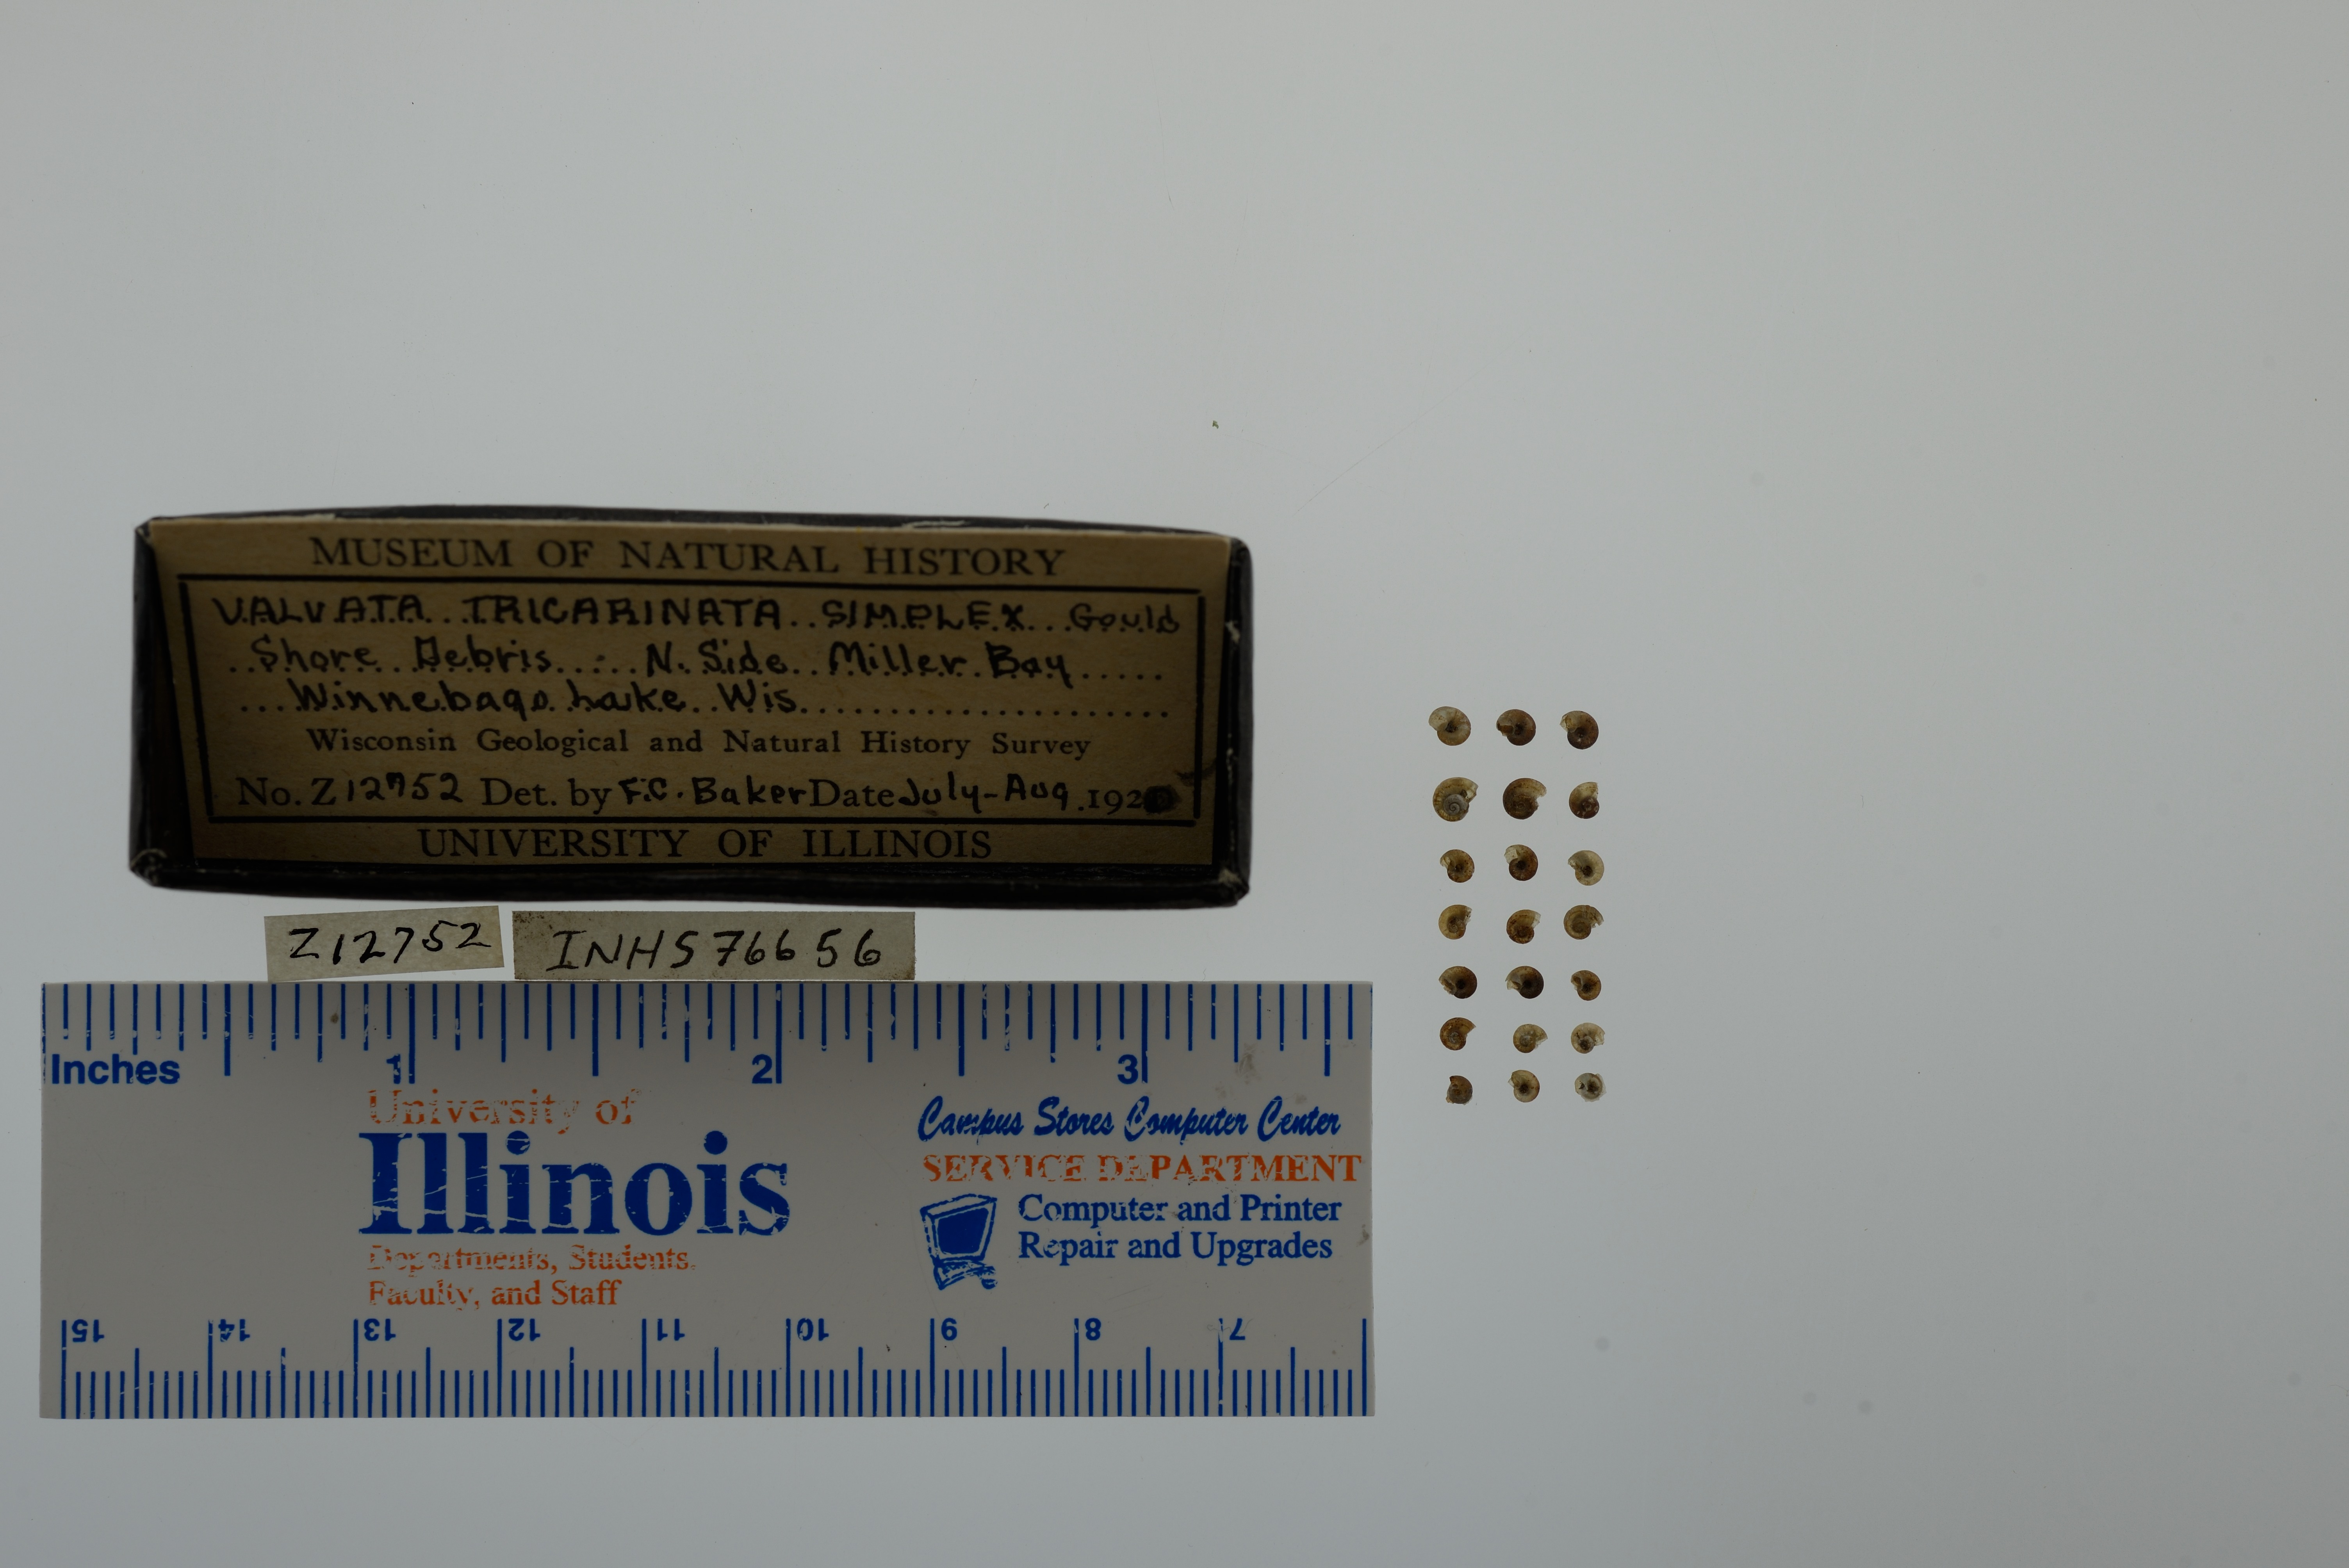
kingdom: Animalia
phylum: Mollusca
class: Gastropoda
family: Valvatidae
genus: Valvata
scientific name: Valvata tricarinata
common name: Three-ridge valvata
